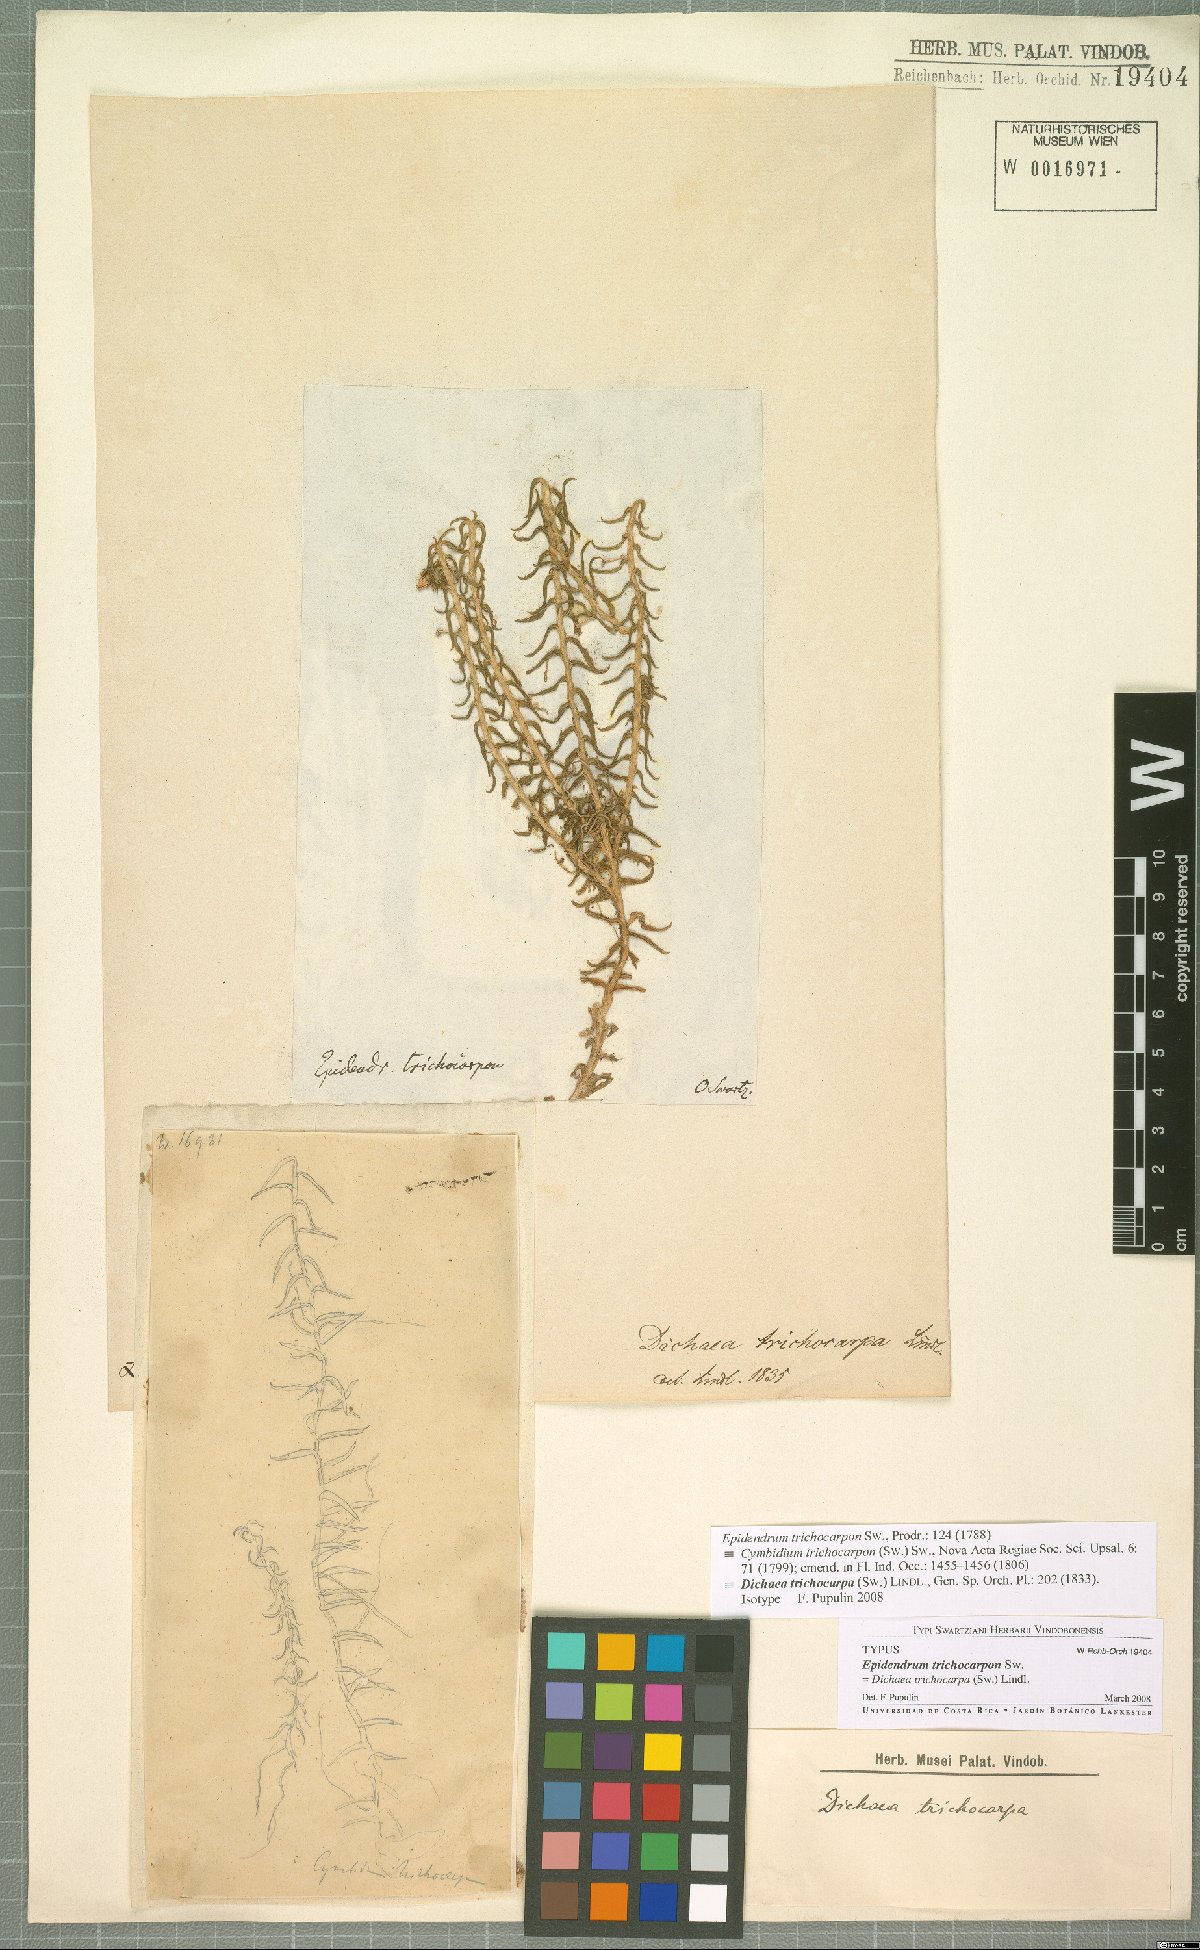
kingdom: Plantae
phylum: Tracheophyta
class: Liliopsida
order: Asparagales
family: Orchidaceae
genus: Dichaea
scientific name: Dichaea trichocarpa
